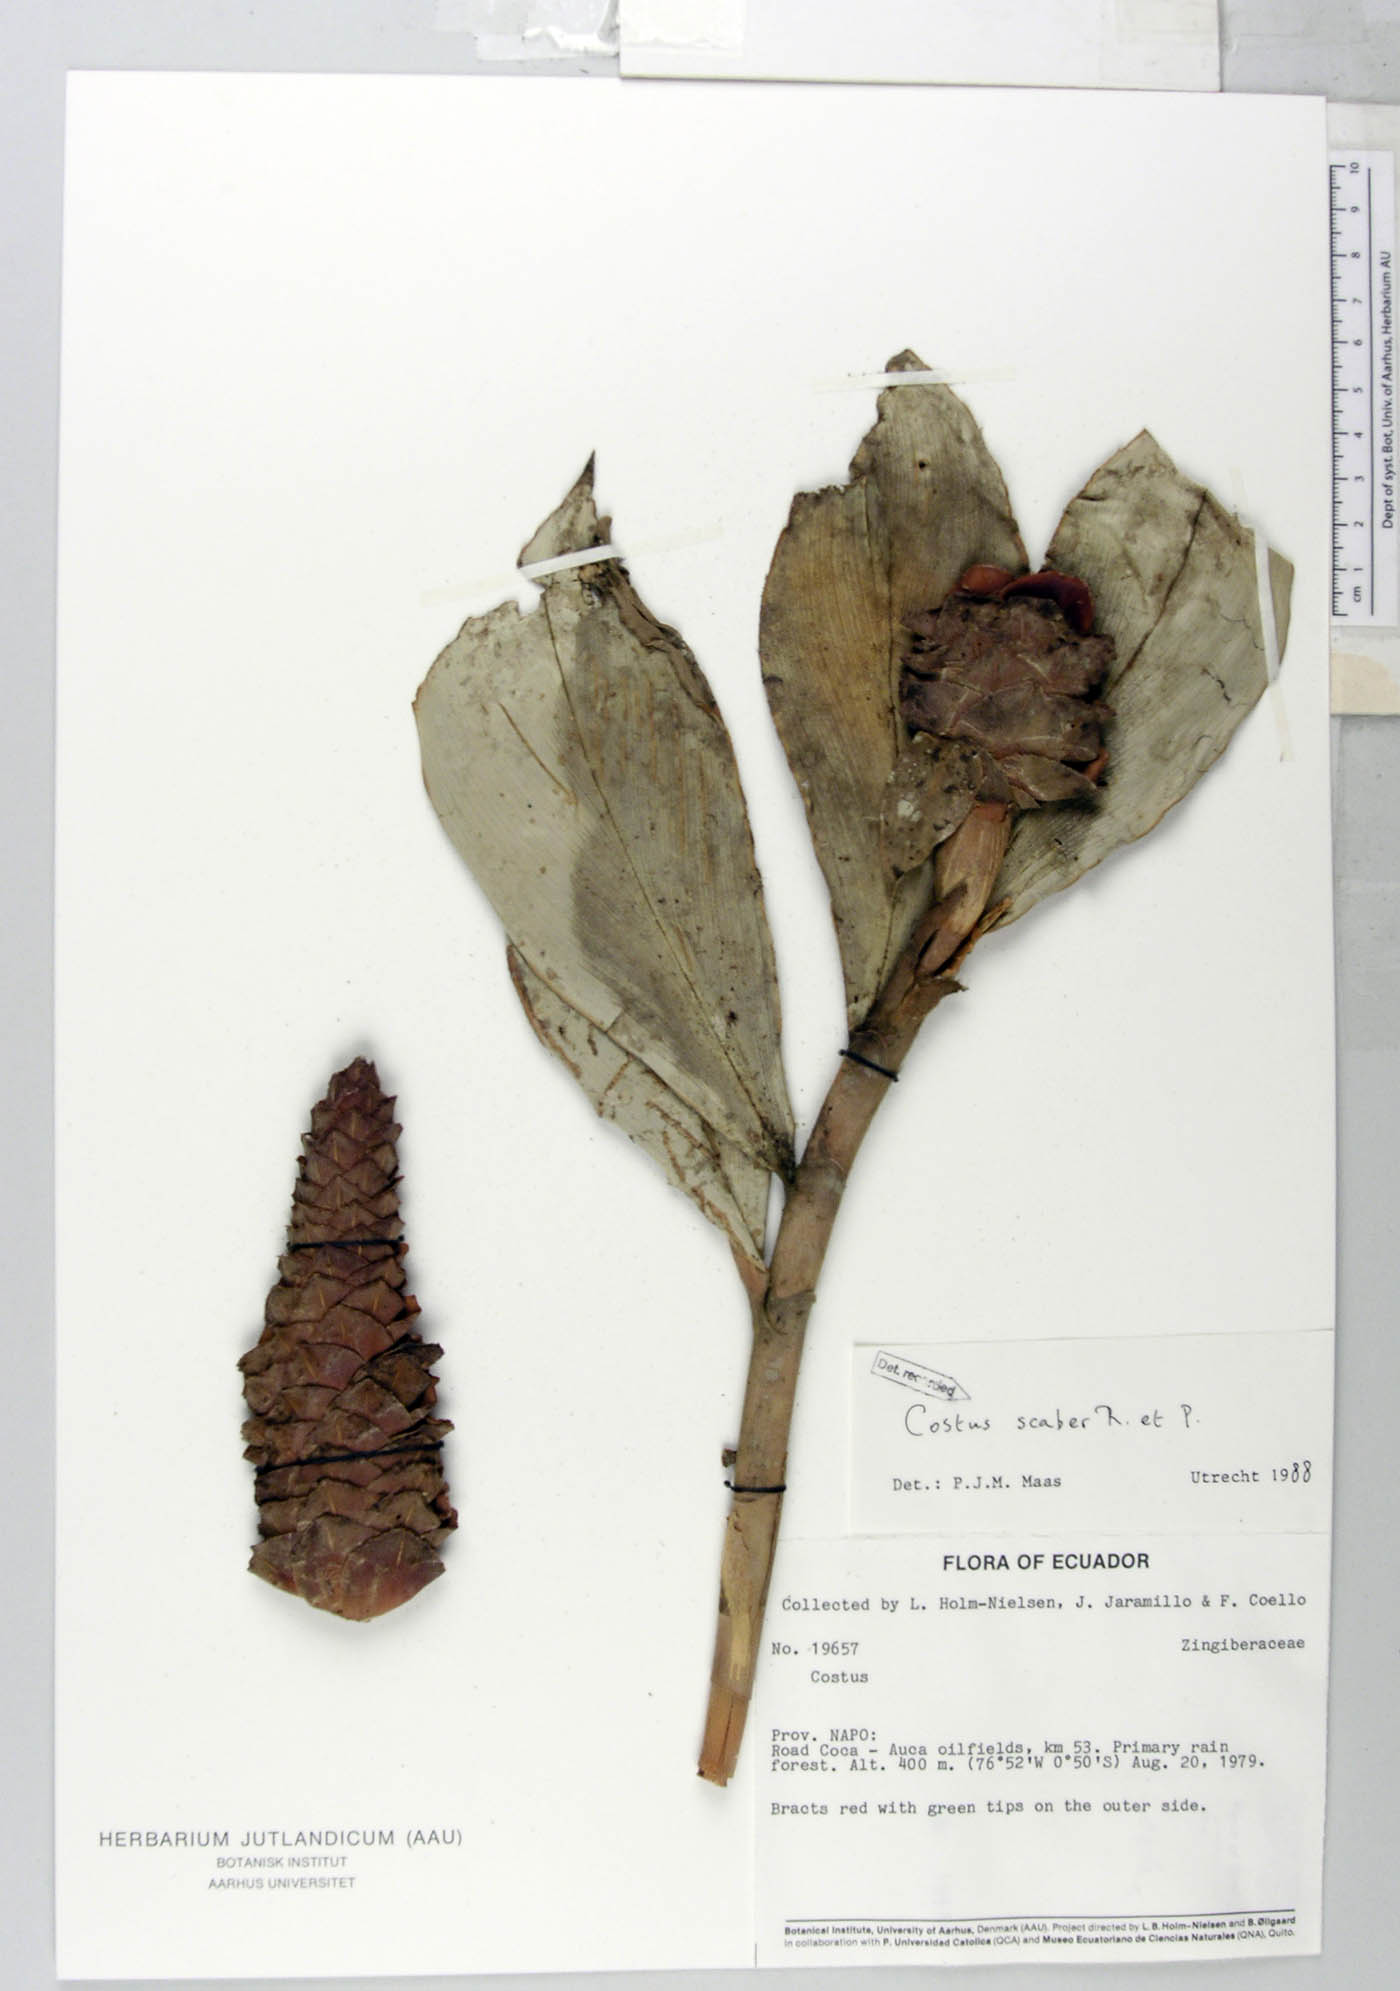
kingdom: Plantae
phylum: Tracheophyta
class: Liliopsida
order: Zingiberales
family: Costaceae
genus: Costus
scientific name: Costus scaber
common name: Spiral head ginger
